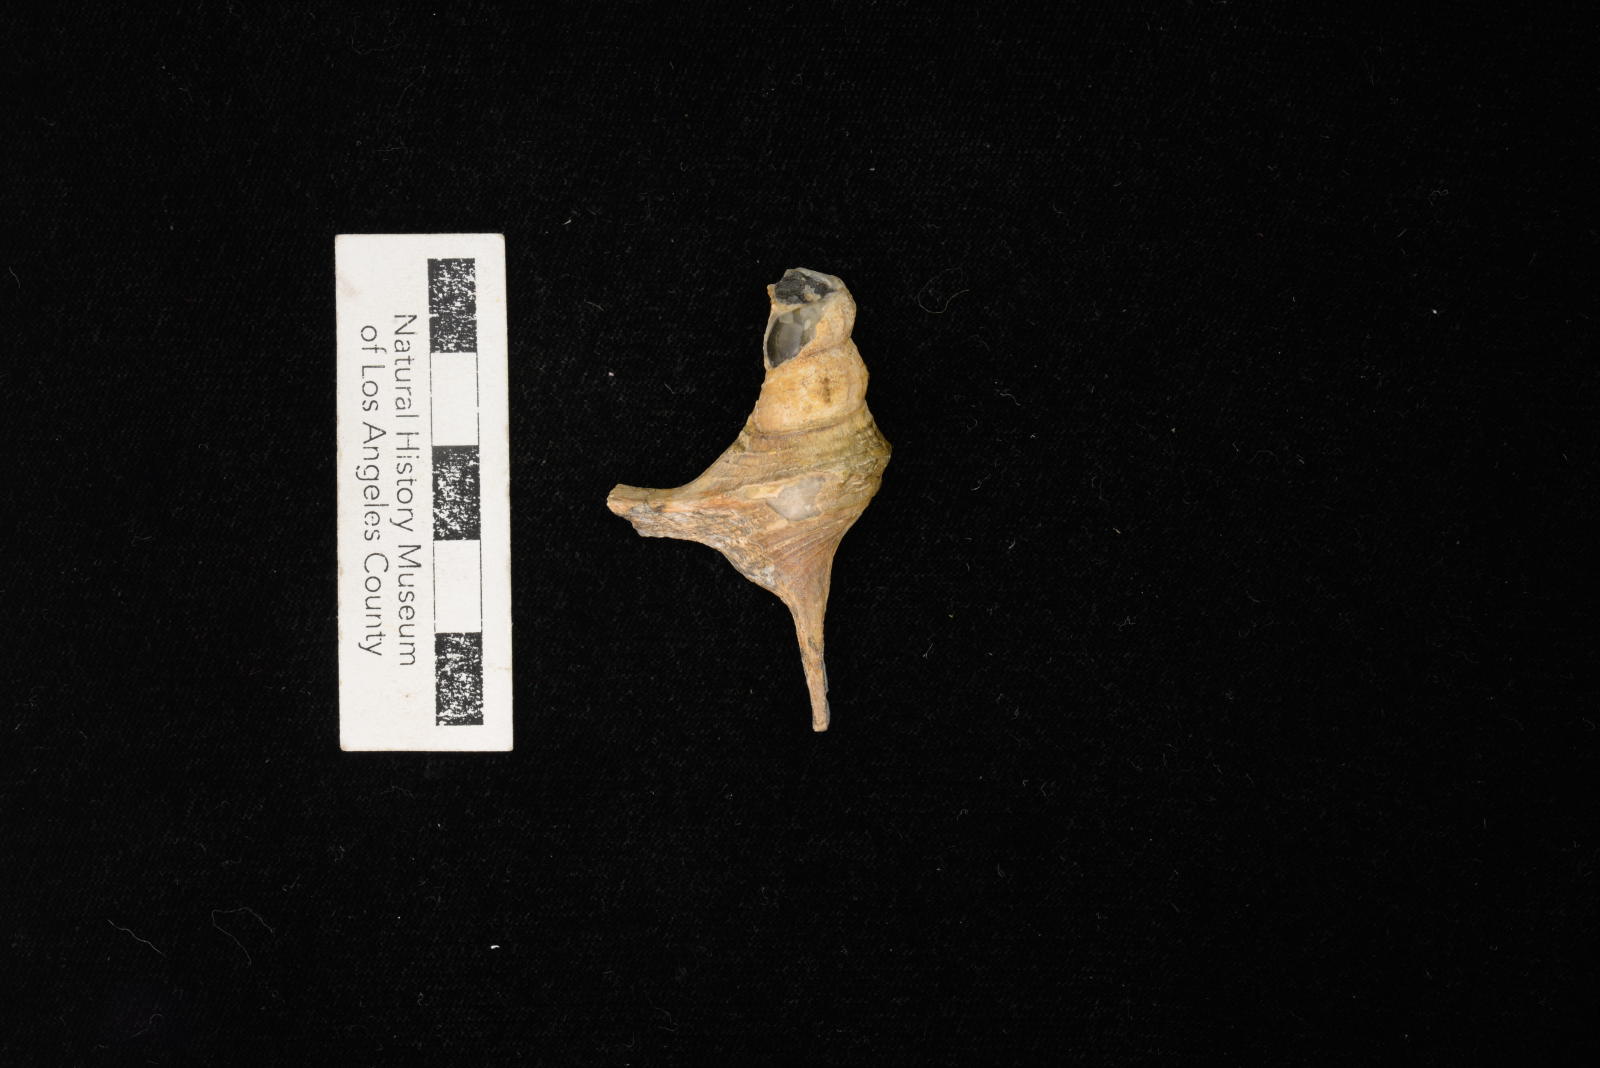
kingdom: Animalia
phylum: Mollusca
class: Gastropoda
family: Metacerithiidae
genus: Cimolithium
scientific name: Cimolithium eleanorae
